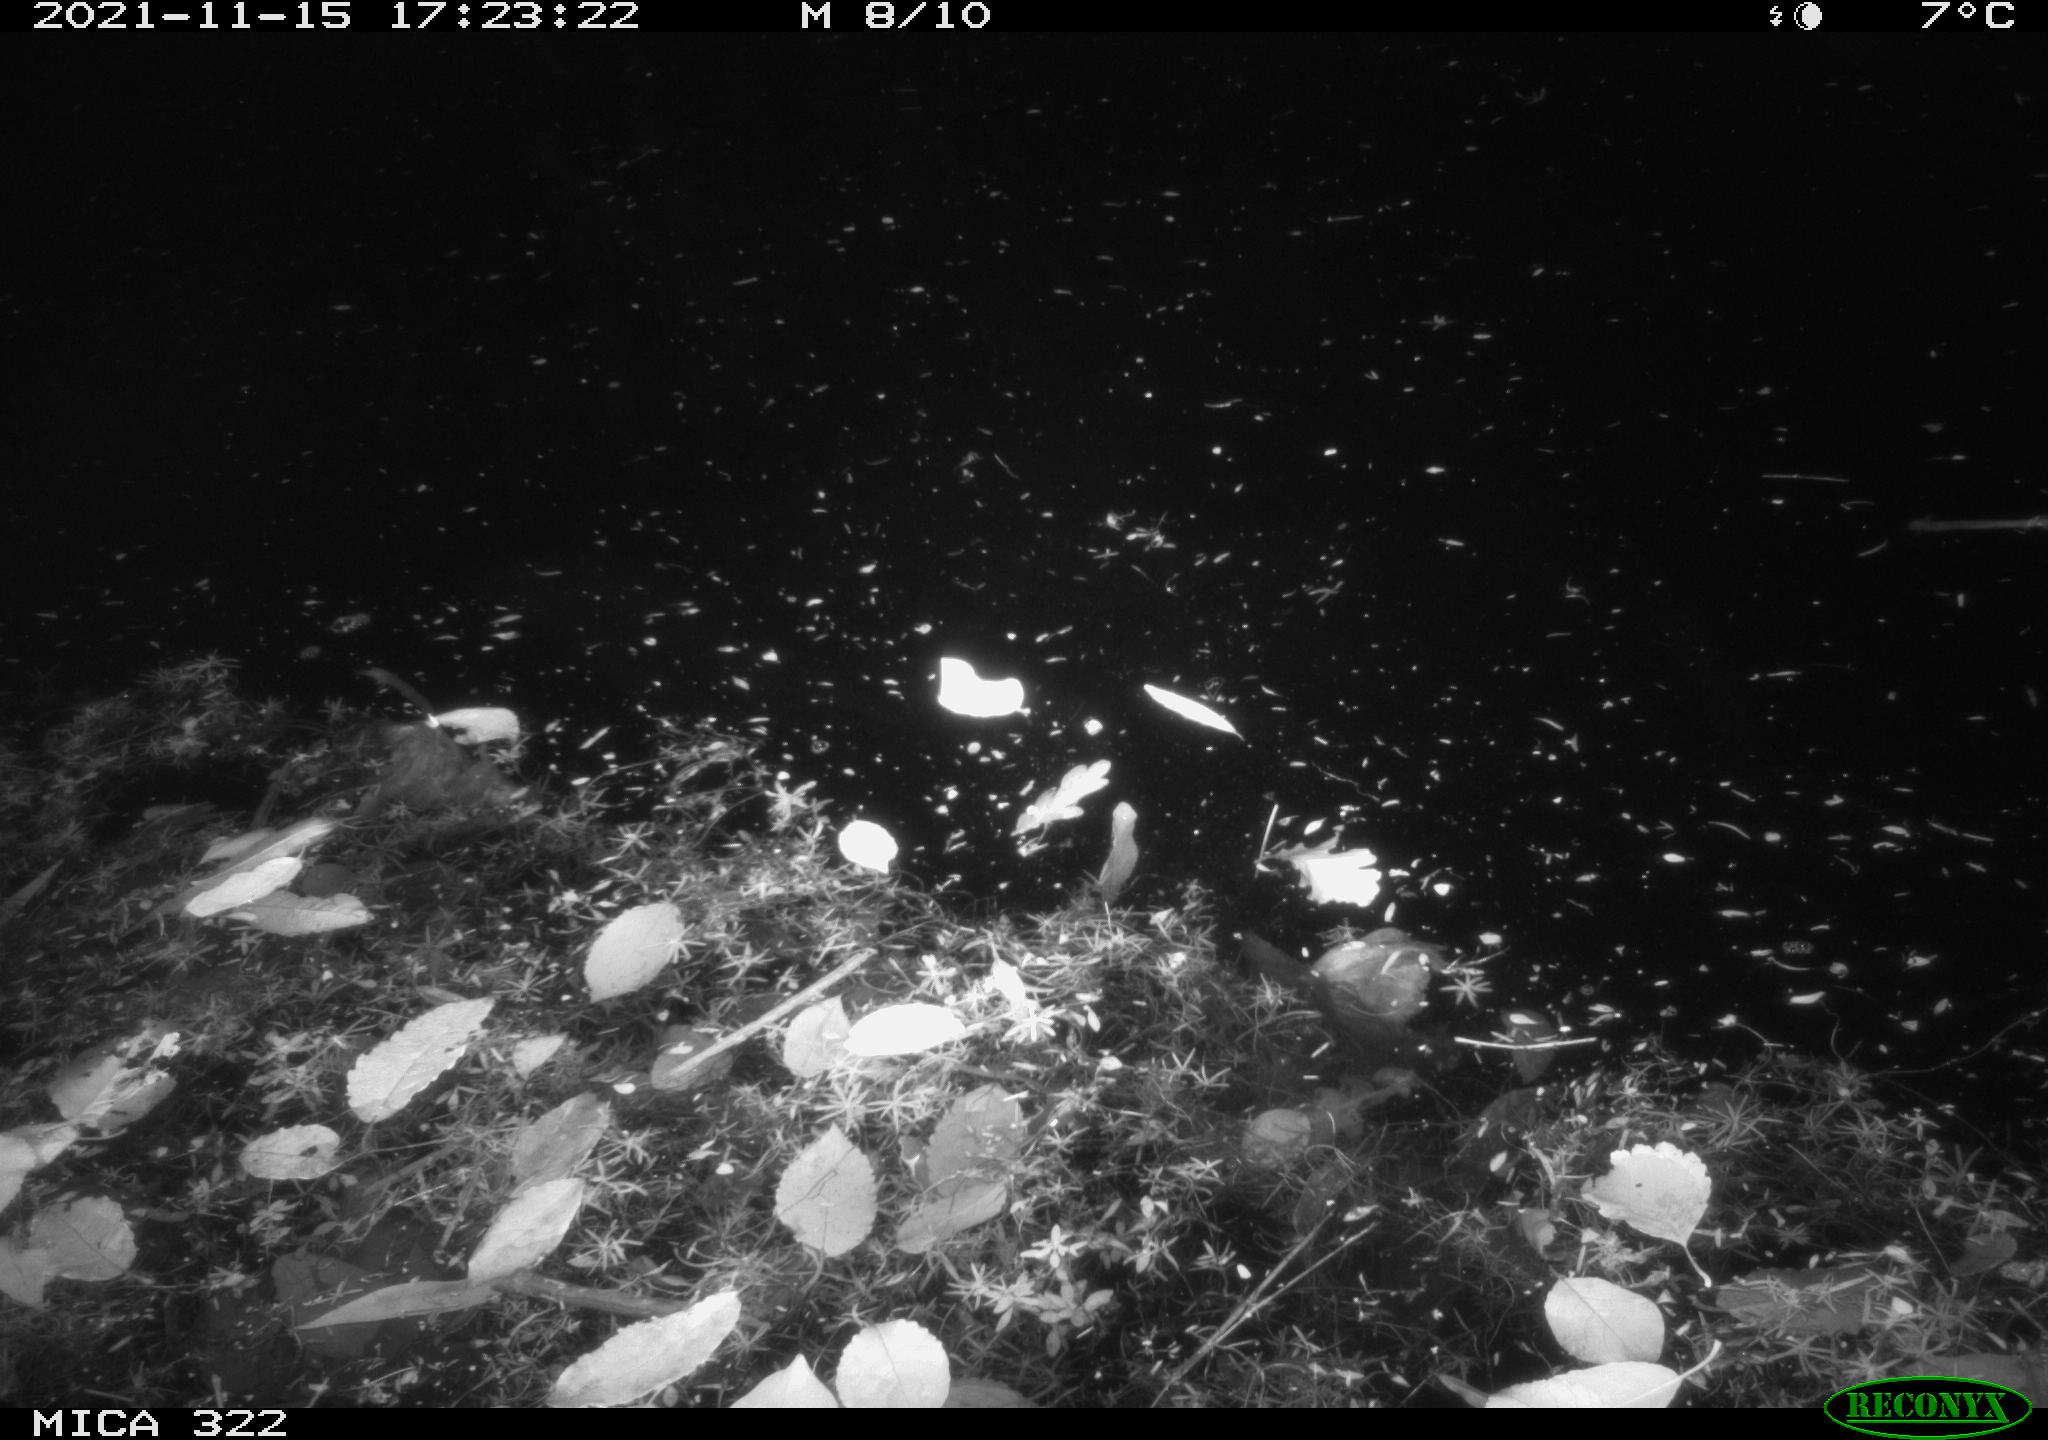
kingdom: Animalia
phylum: Chordata
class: Mammalia
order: Rodentia
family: Muridae
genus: Rattus
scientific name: Rattus norvegicus
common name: Brown rat
